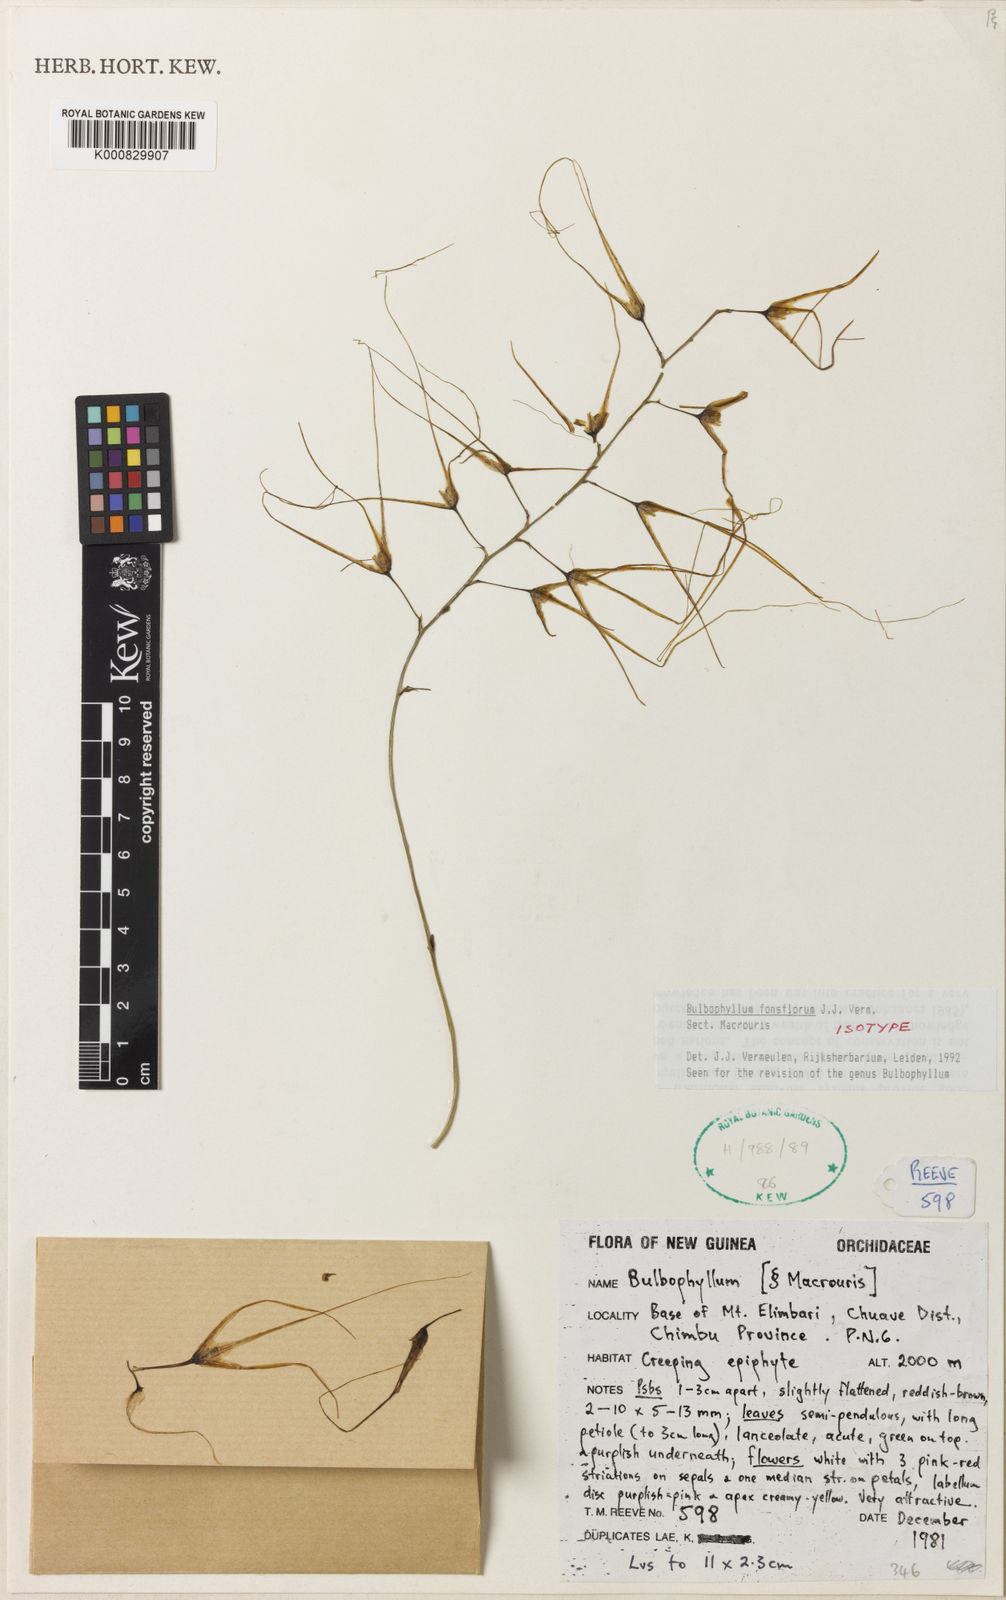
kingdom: Plantae
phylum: Tracheophyta
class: Liliopsida
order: Asparagales
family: Orchidaceae
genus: Bulbophyllum
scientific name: Bulbophyllum
